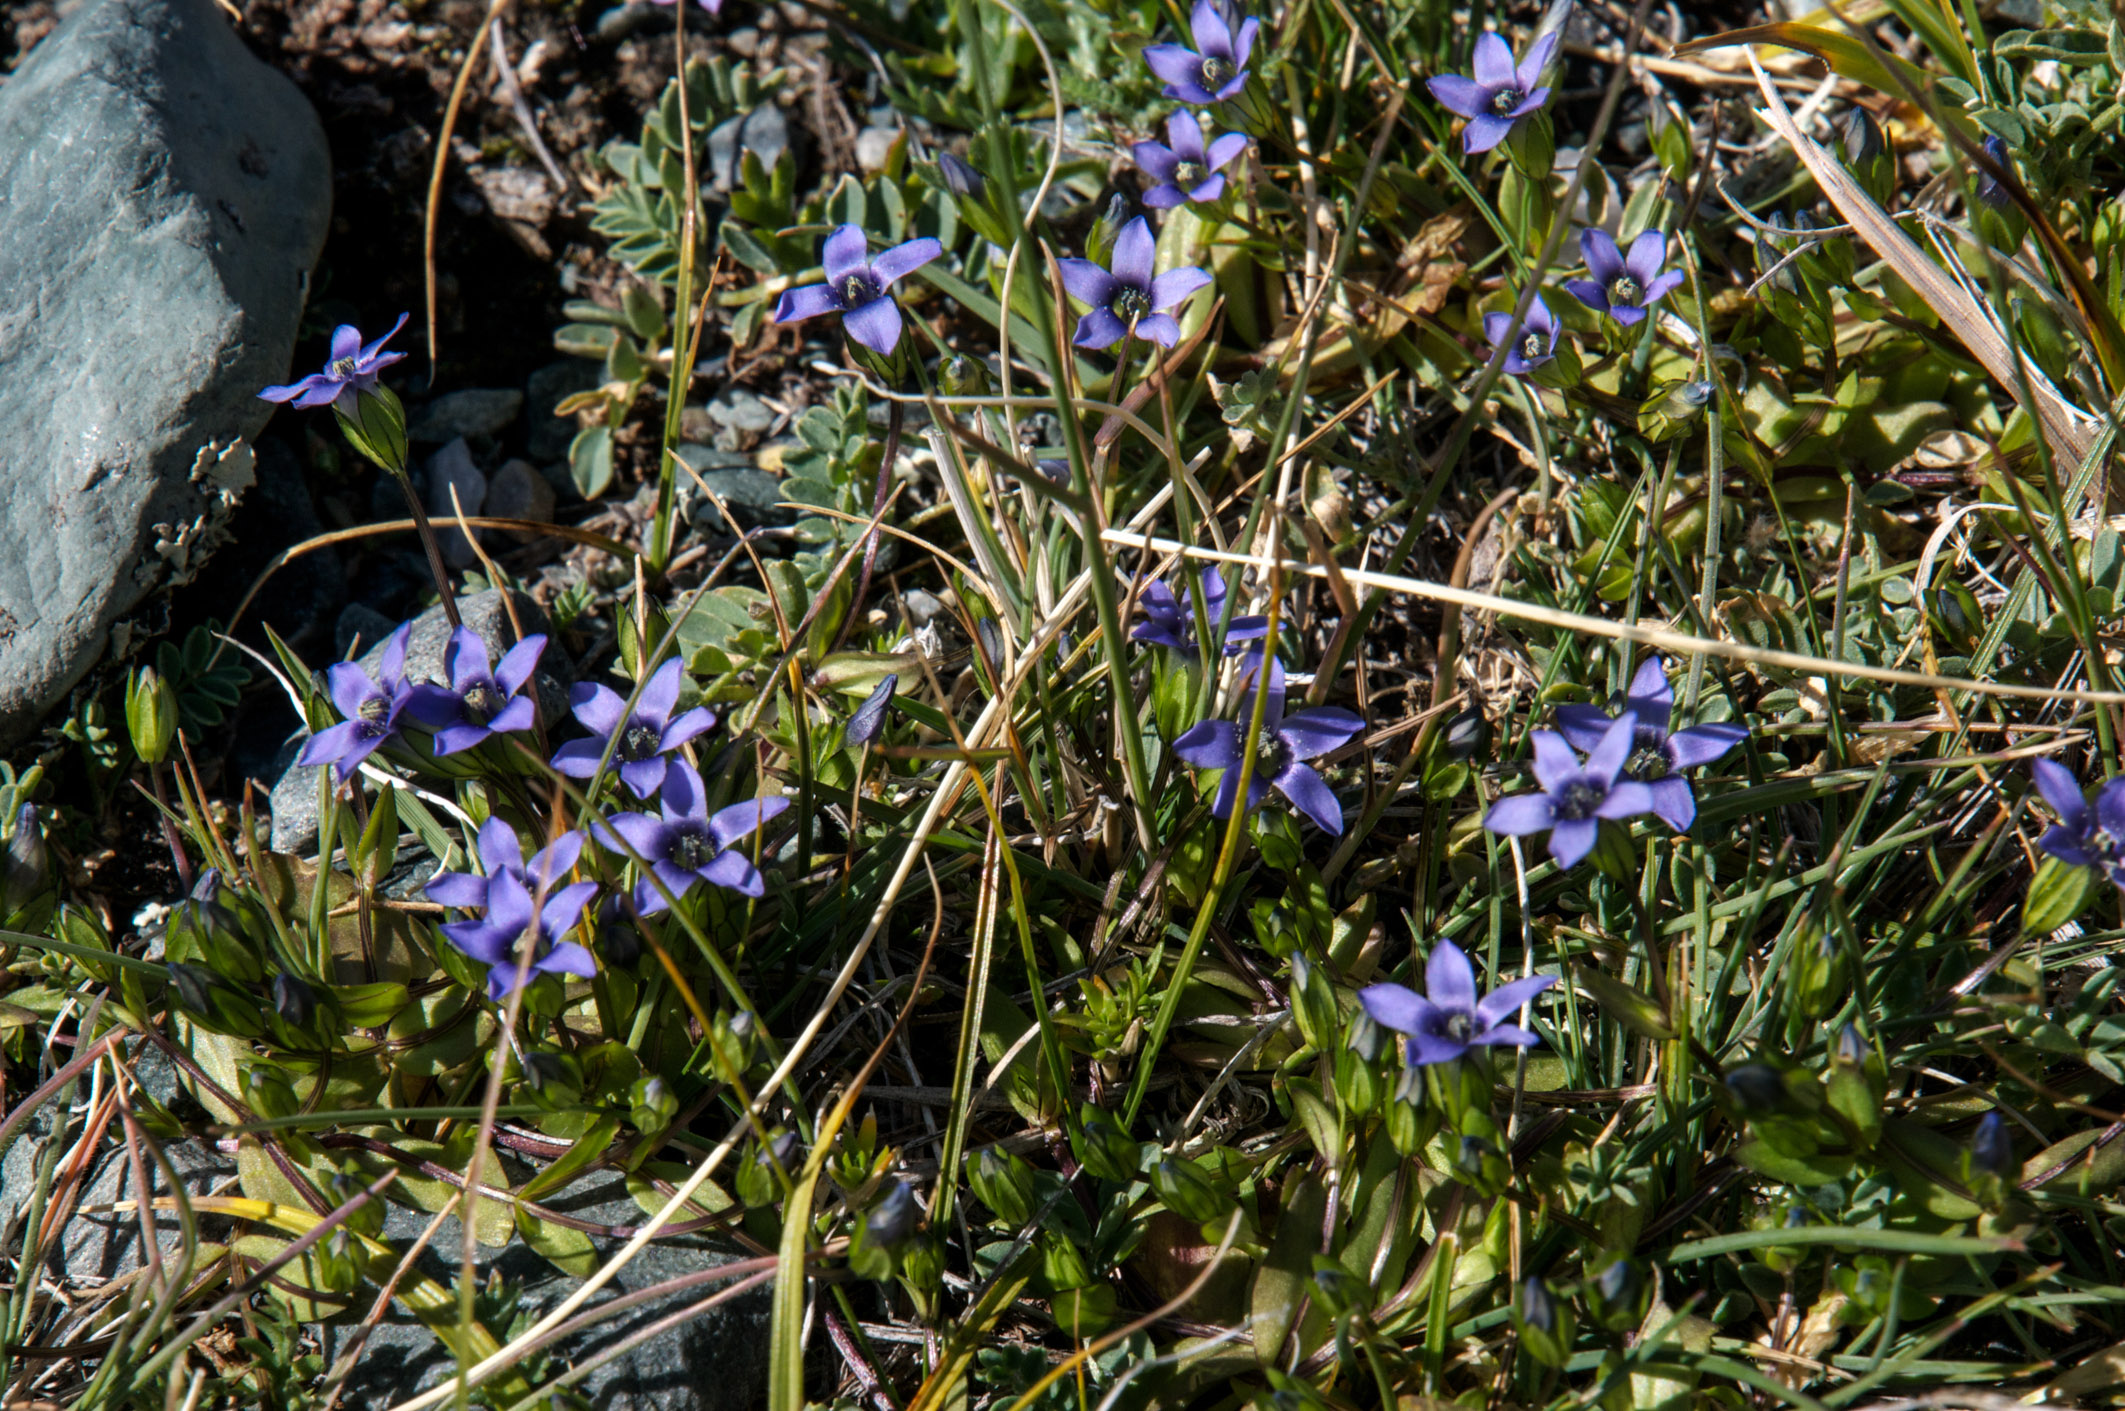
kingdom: Plantae
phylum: Tracheophyta
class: Magnoliopsida
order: Gentianales
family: Gentianaceae
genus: Comastoma
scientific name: Comastoma tenellum
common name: Dane's dwarf gentian
